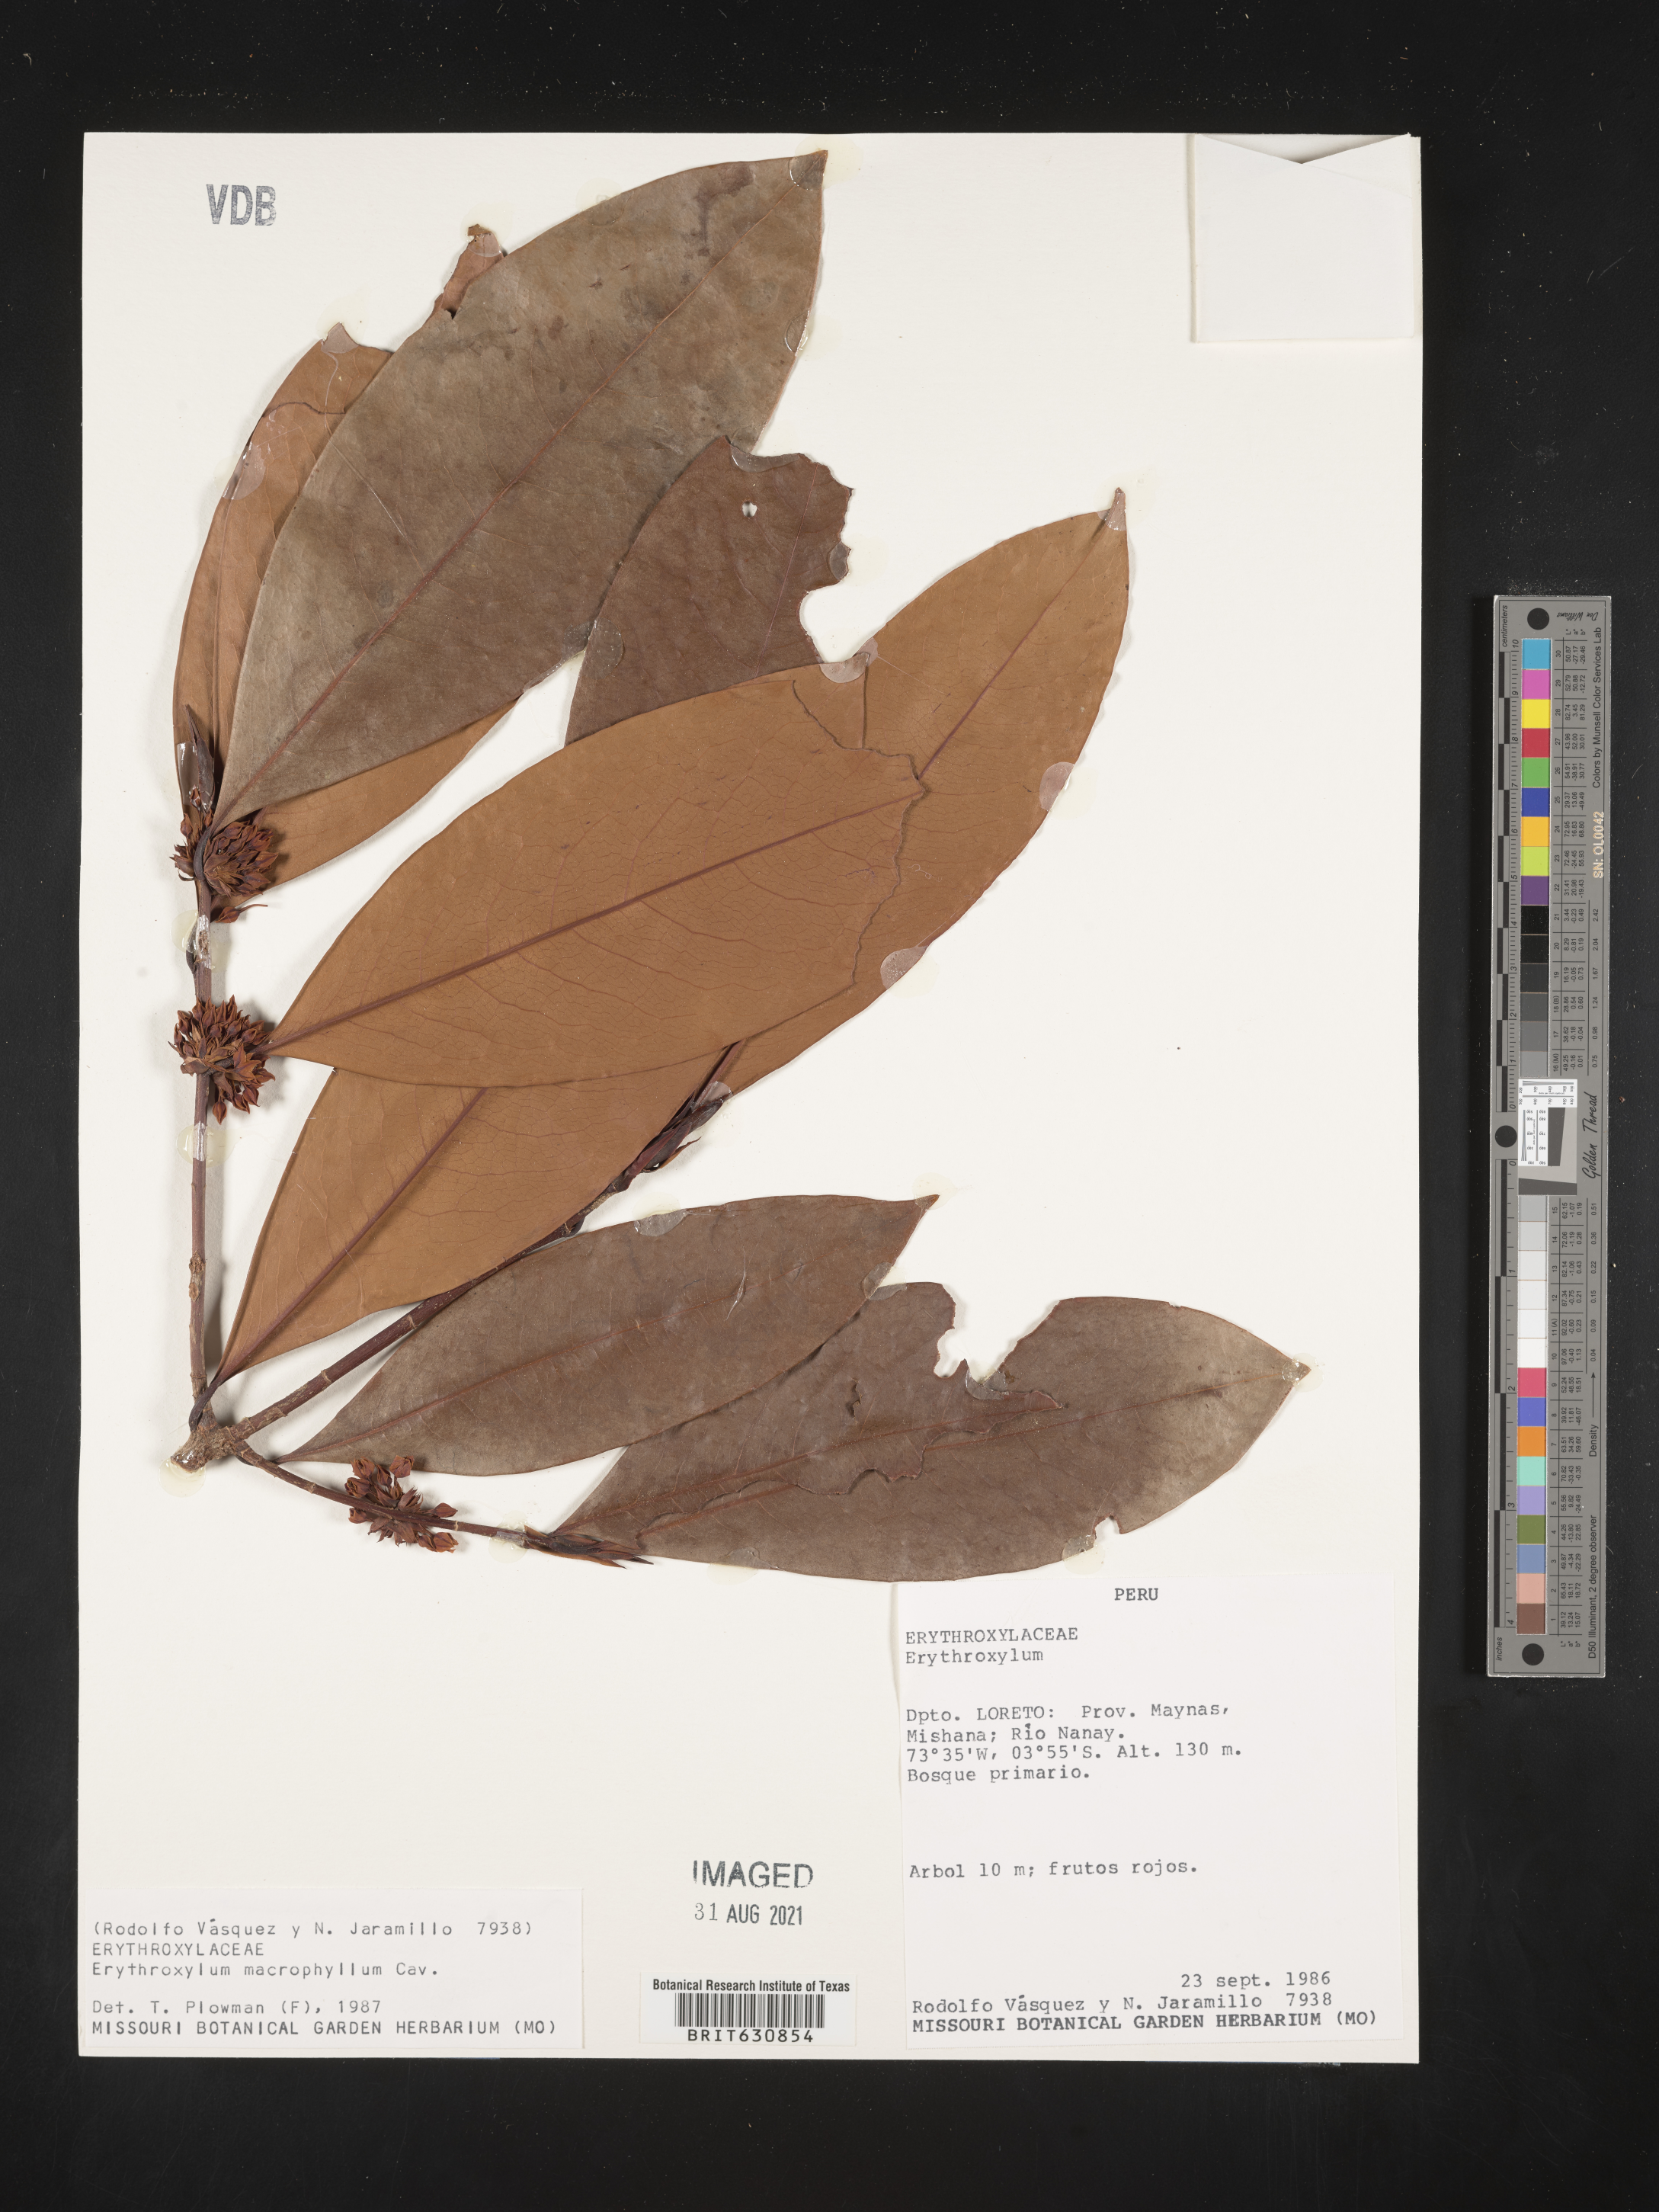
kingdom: Plantae
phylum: Tracheophyta
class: Magnoliopsida
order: Malpighiales
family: Erythroxylaceae
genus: Erythroxylum
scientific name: Erythroxylum
